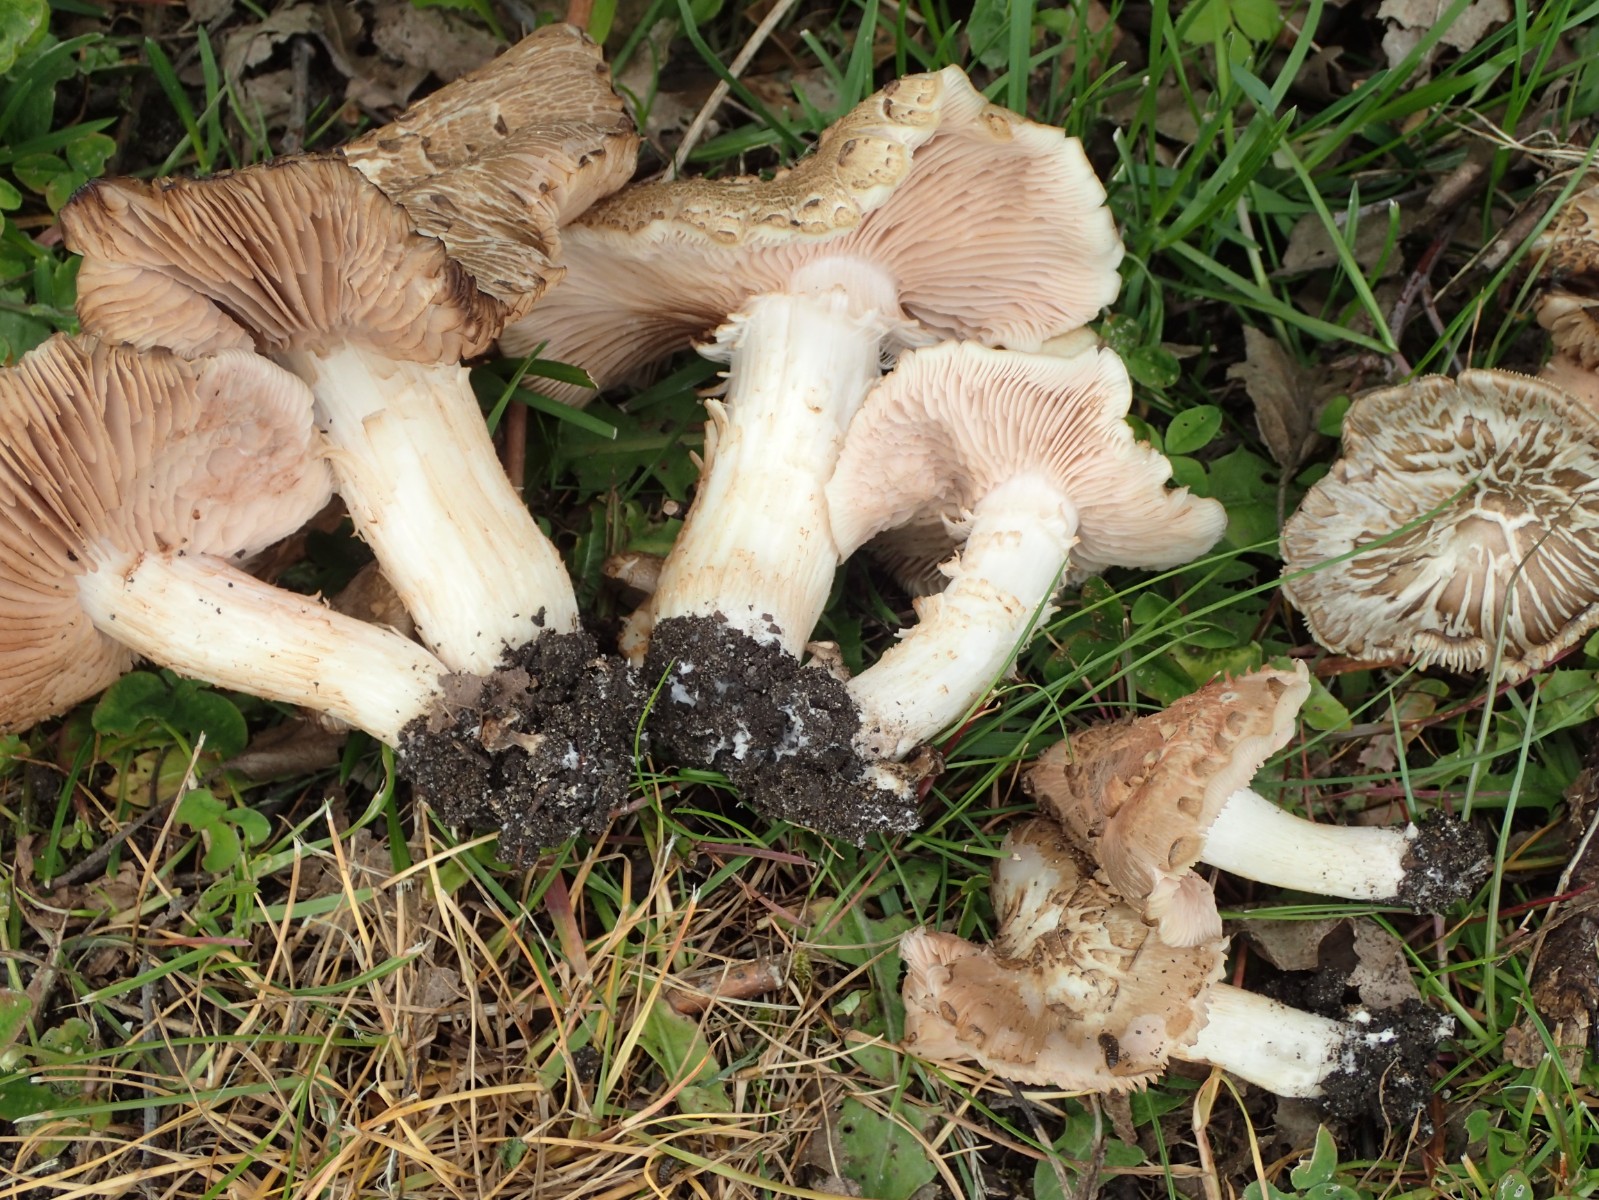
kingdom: Fungi
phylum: Basidiomycota
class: Agaricomycetes
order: Agaricales
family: Entolomataceae
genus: Entoloma
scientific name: Entoloma clypeatum
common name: flammet rødblad
